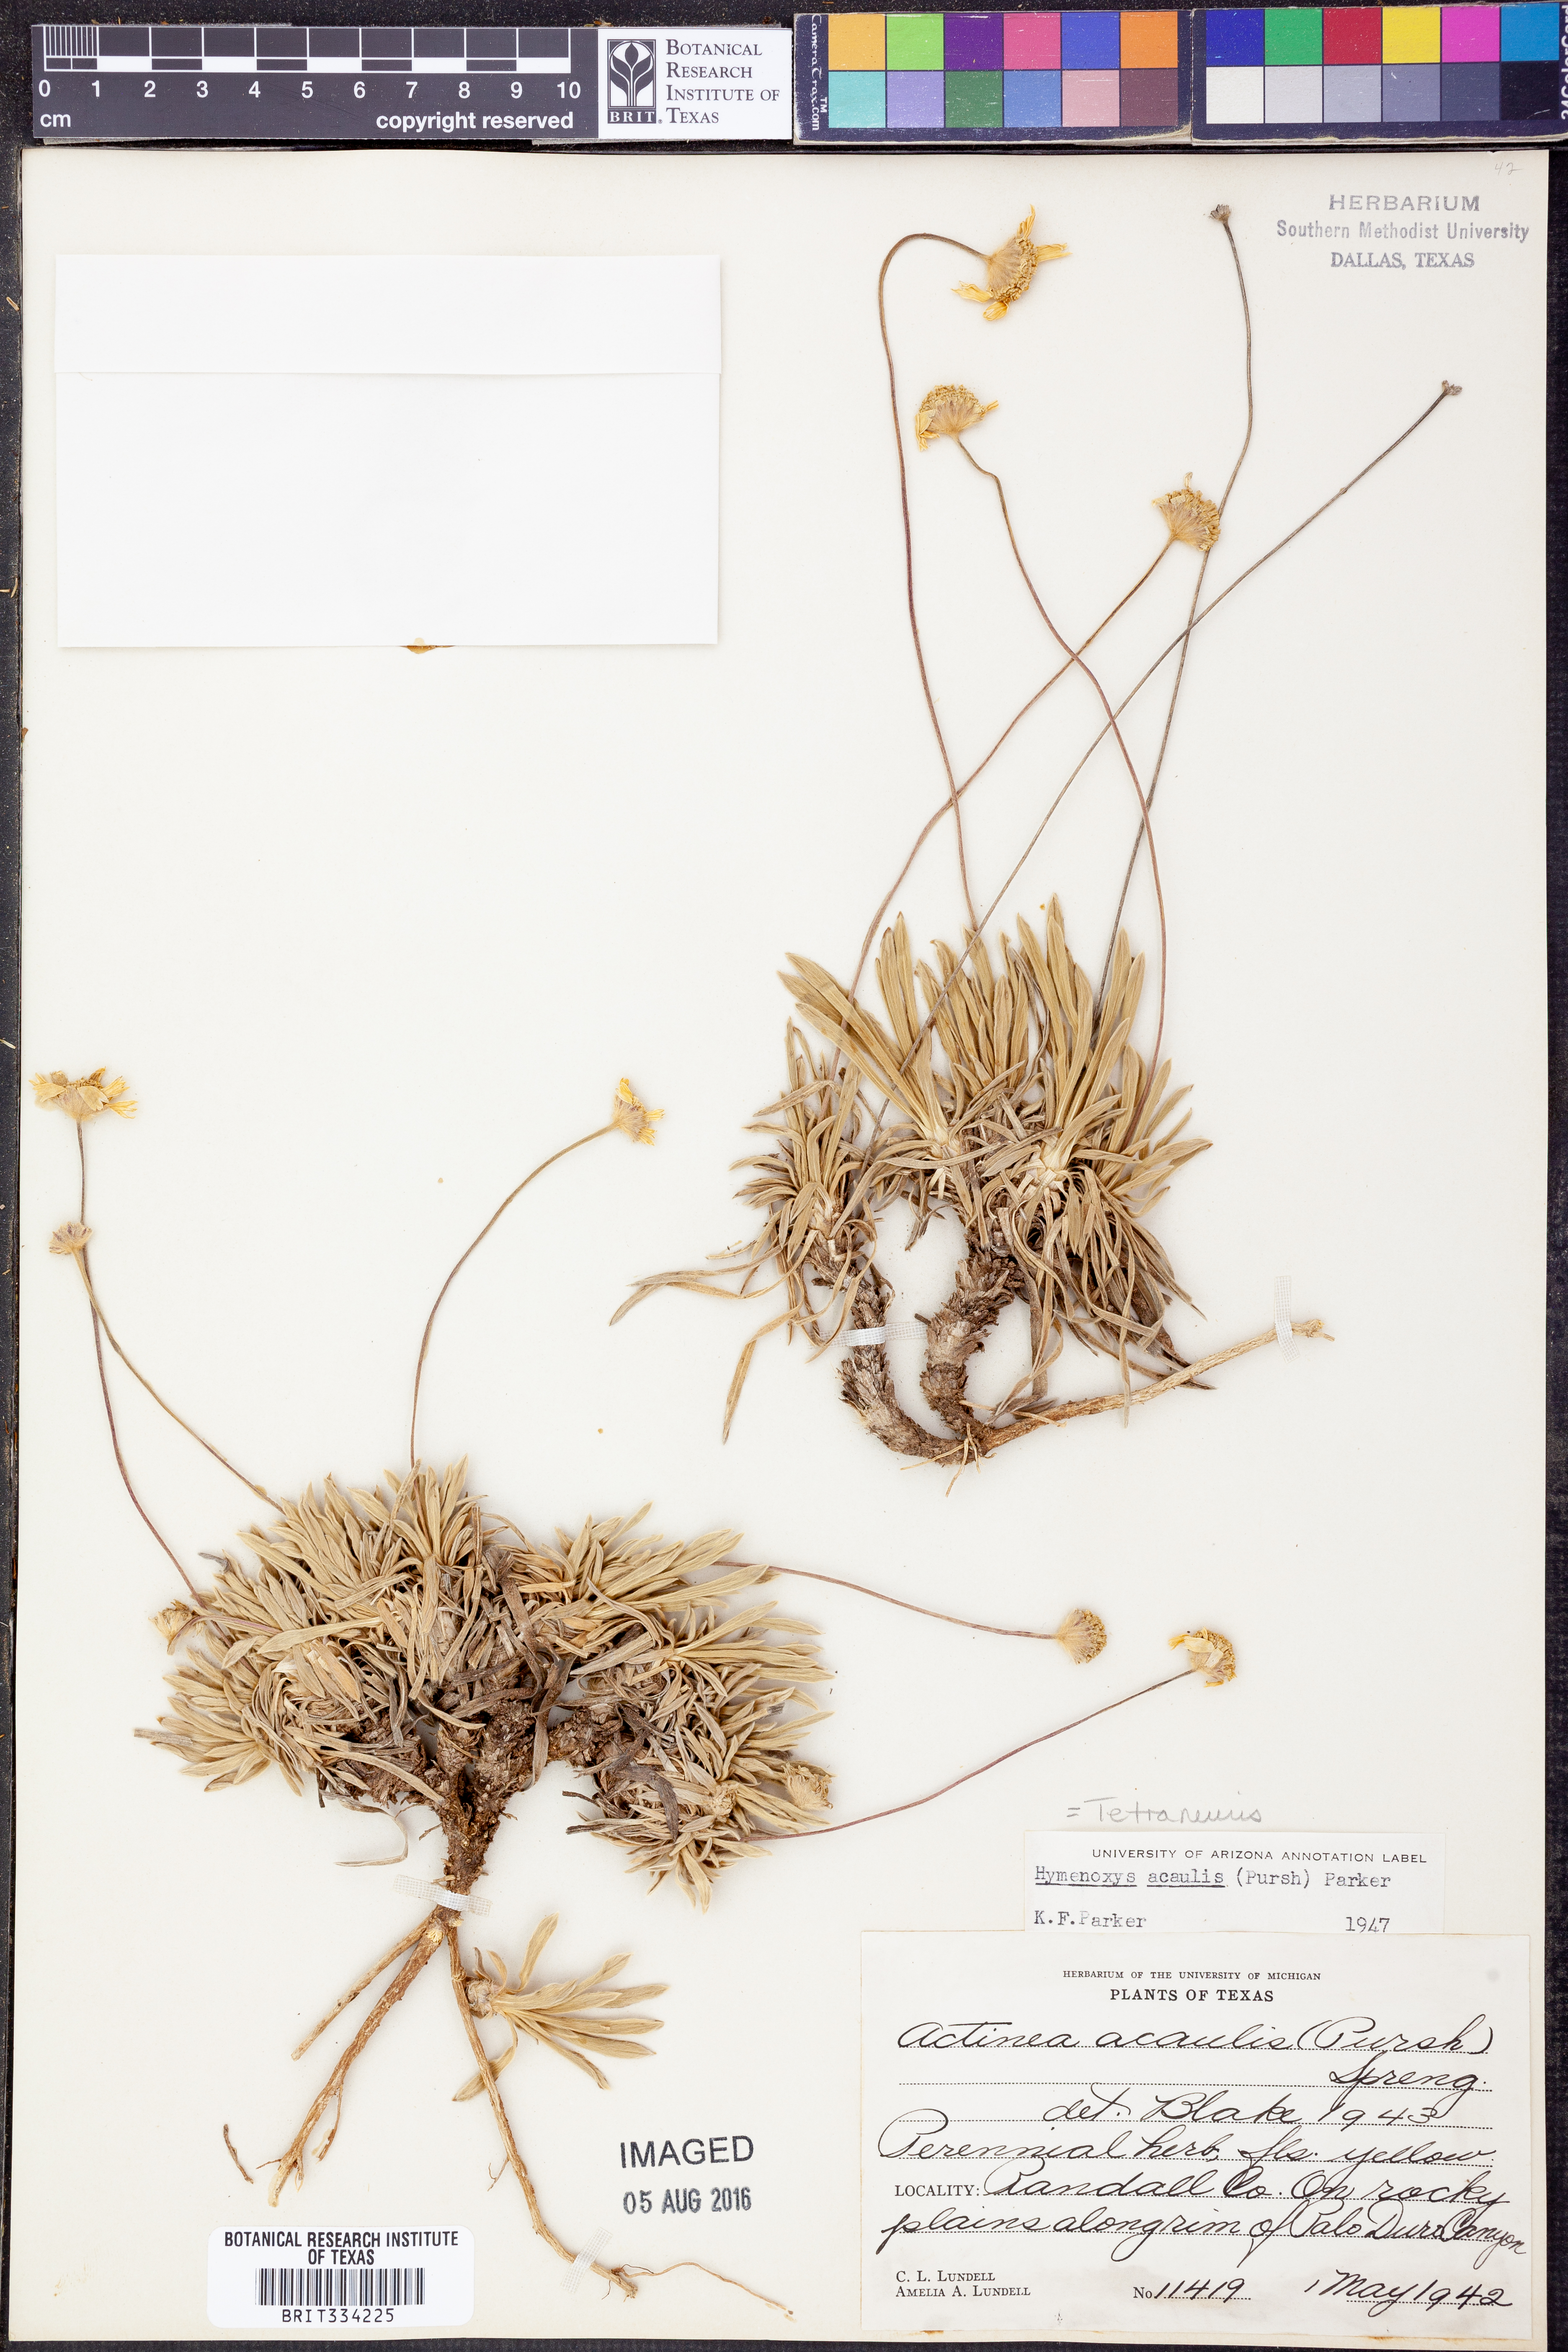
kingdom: Plantae
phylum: Tracheophyta
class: Magnoliopsida
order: Asterales
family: Asteraceae
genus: Tetraneuris
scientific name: Tetraneuris acaulis
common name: Butte marigold
